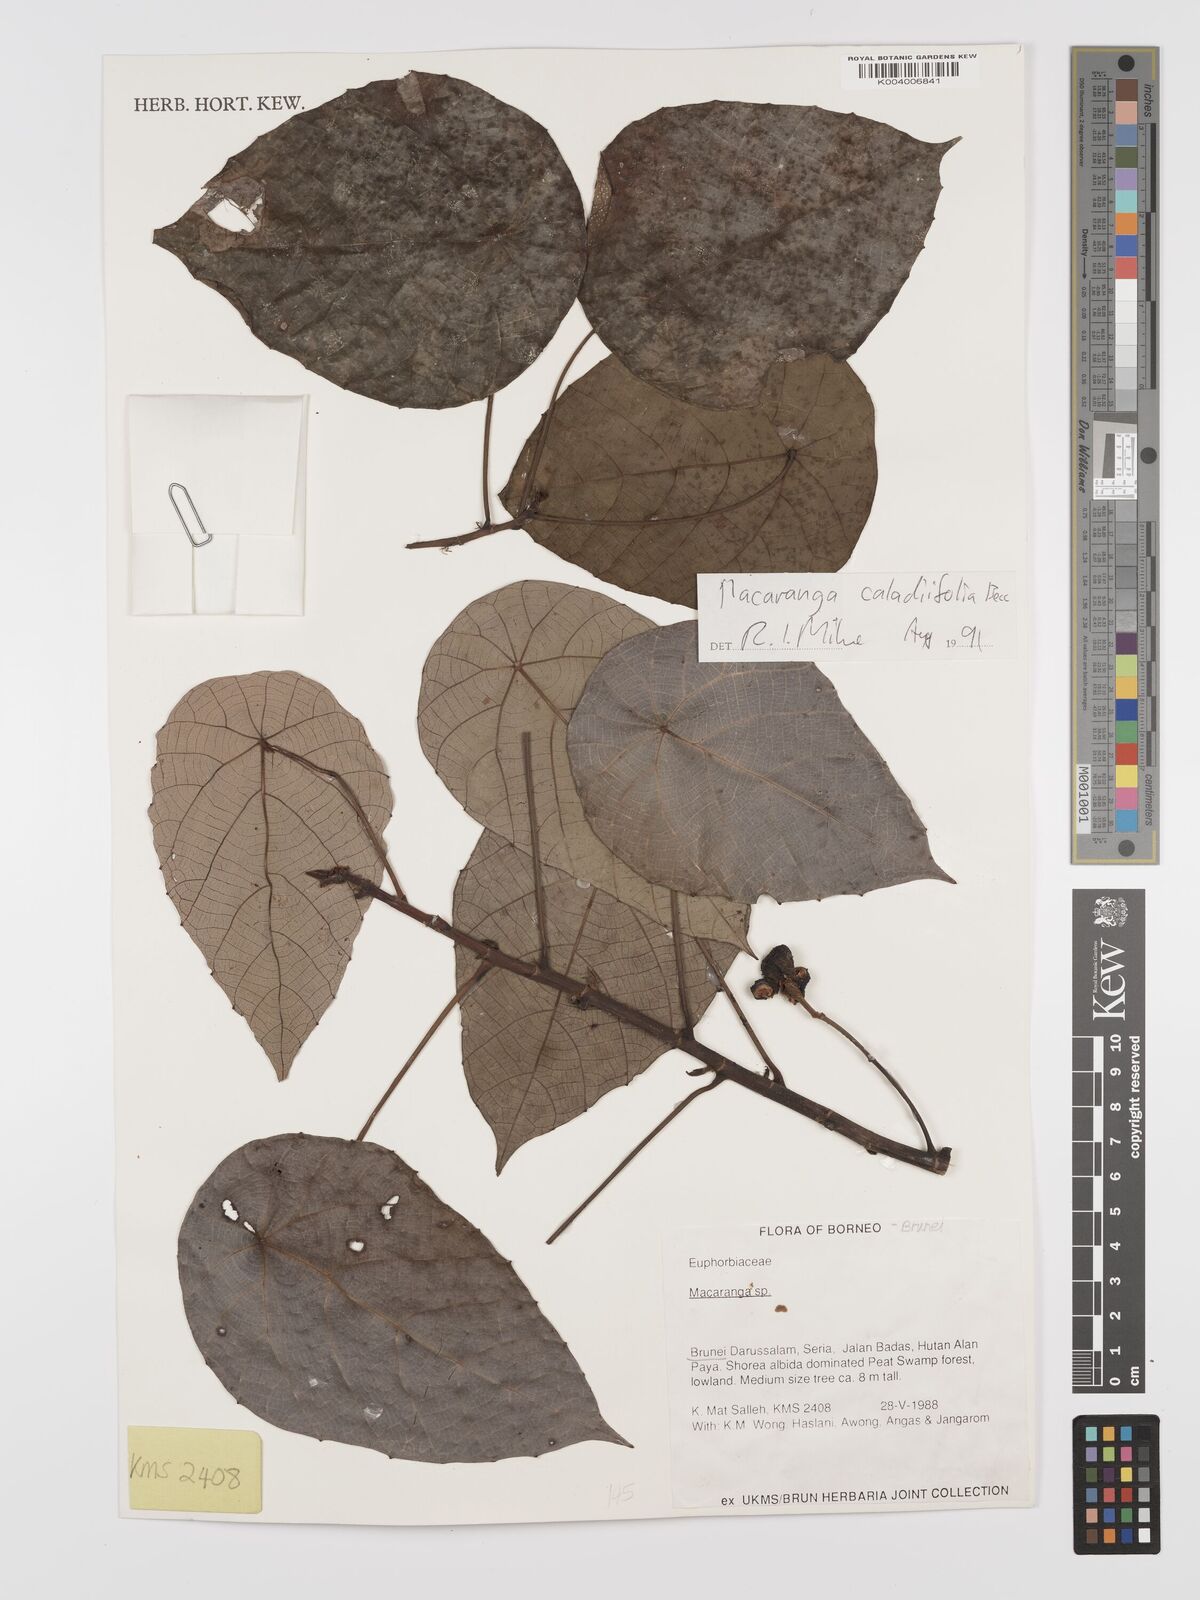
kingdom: Plantae
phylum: Tracheophyta
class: Magnoliopsida
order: Malpighiales
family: Euphorbiaceae
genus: Macaranga
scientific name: Macaranga caladiifolia
